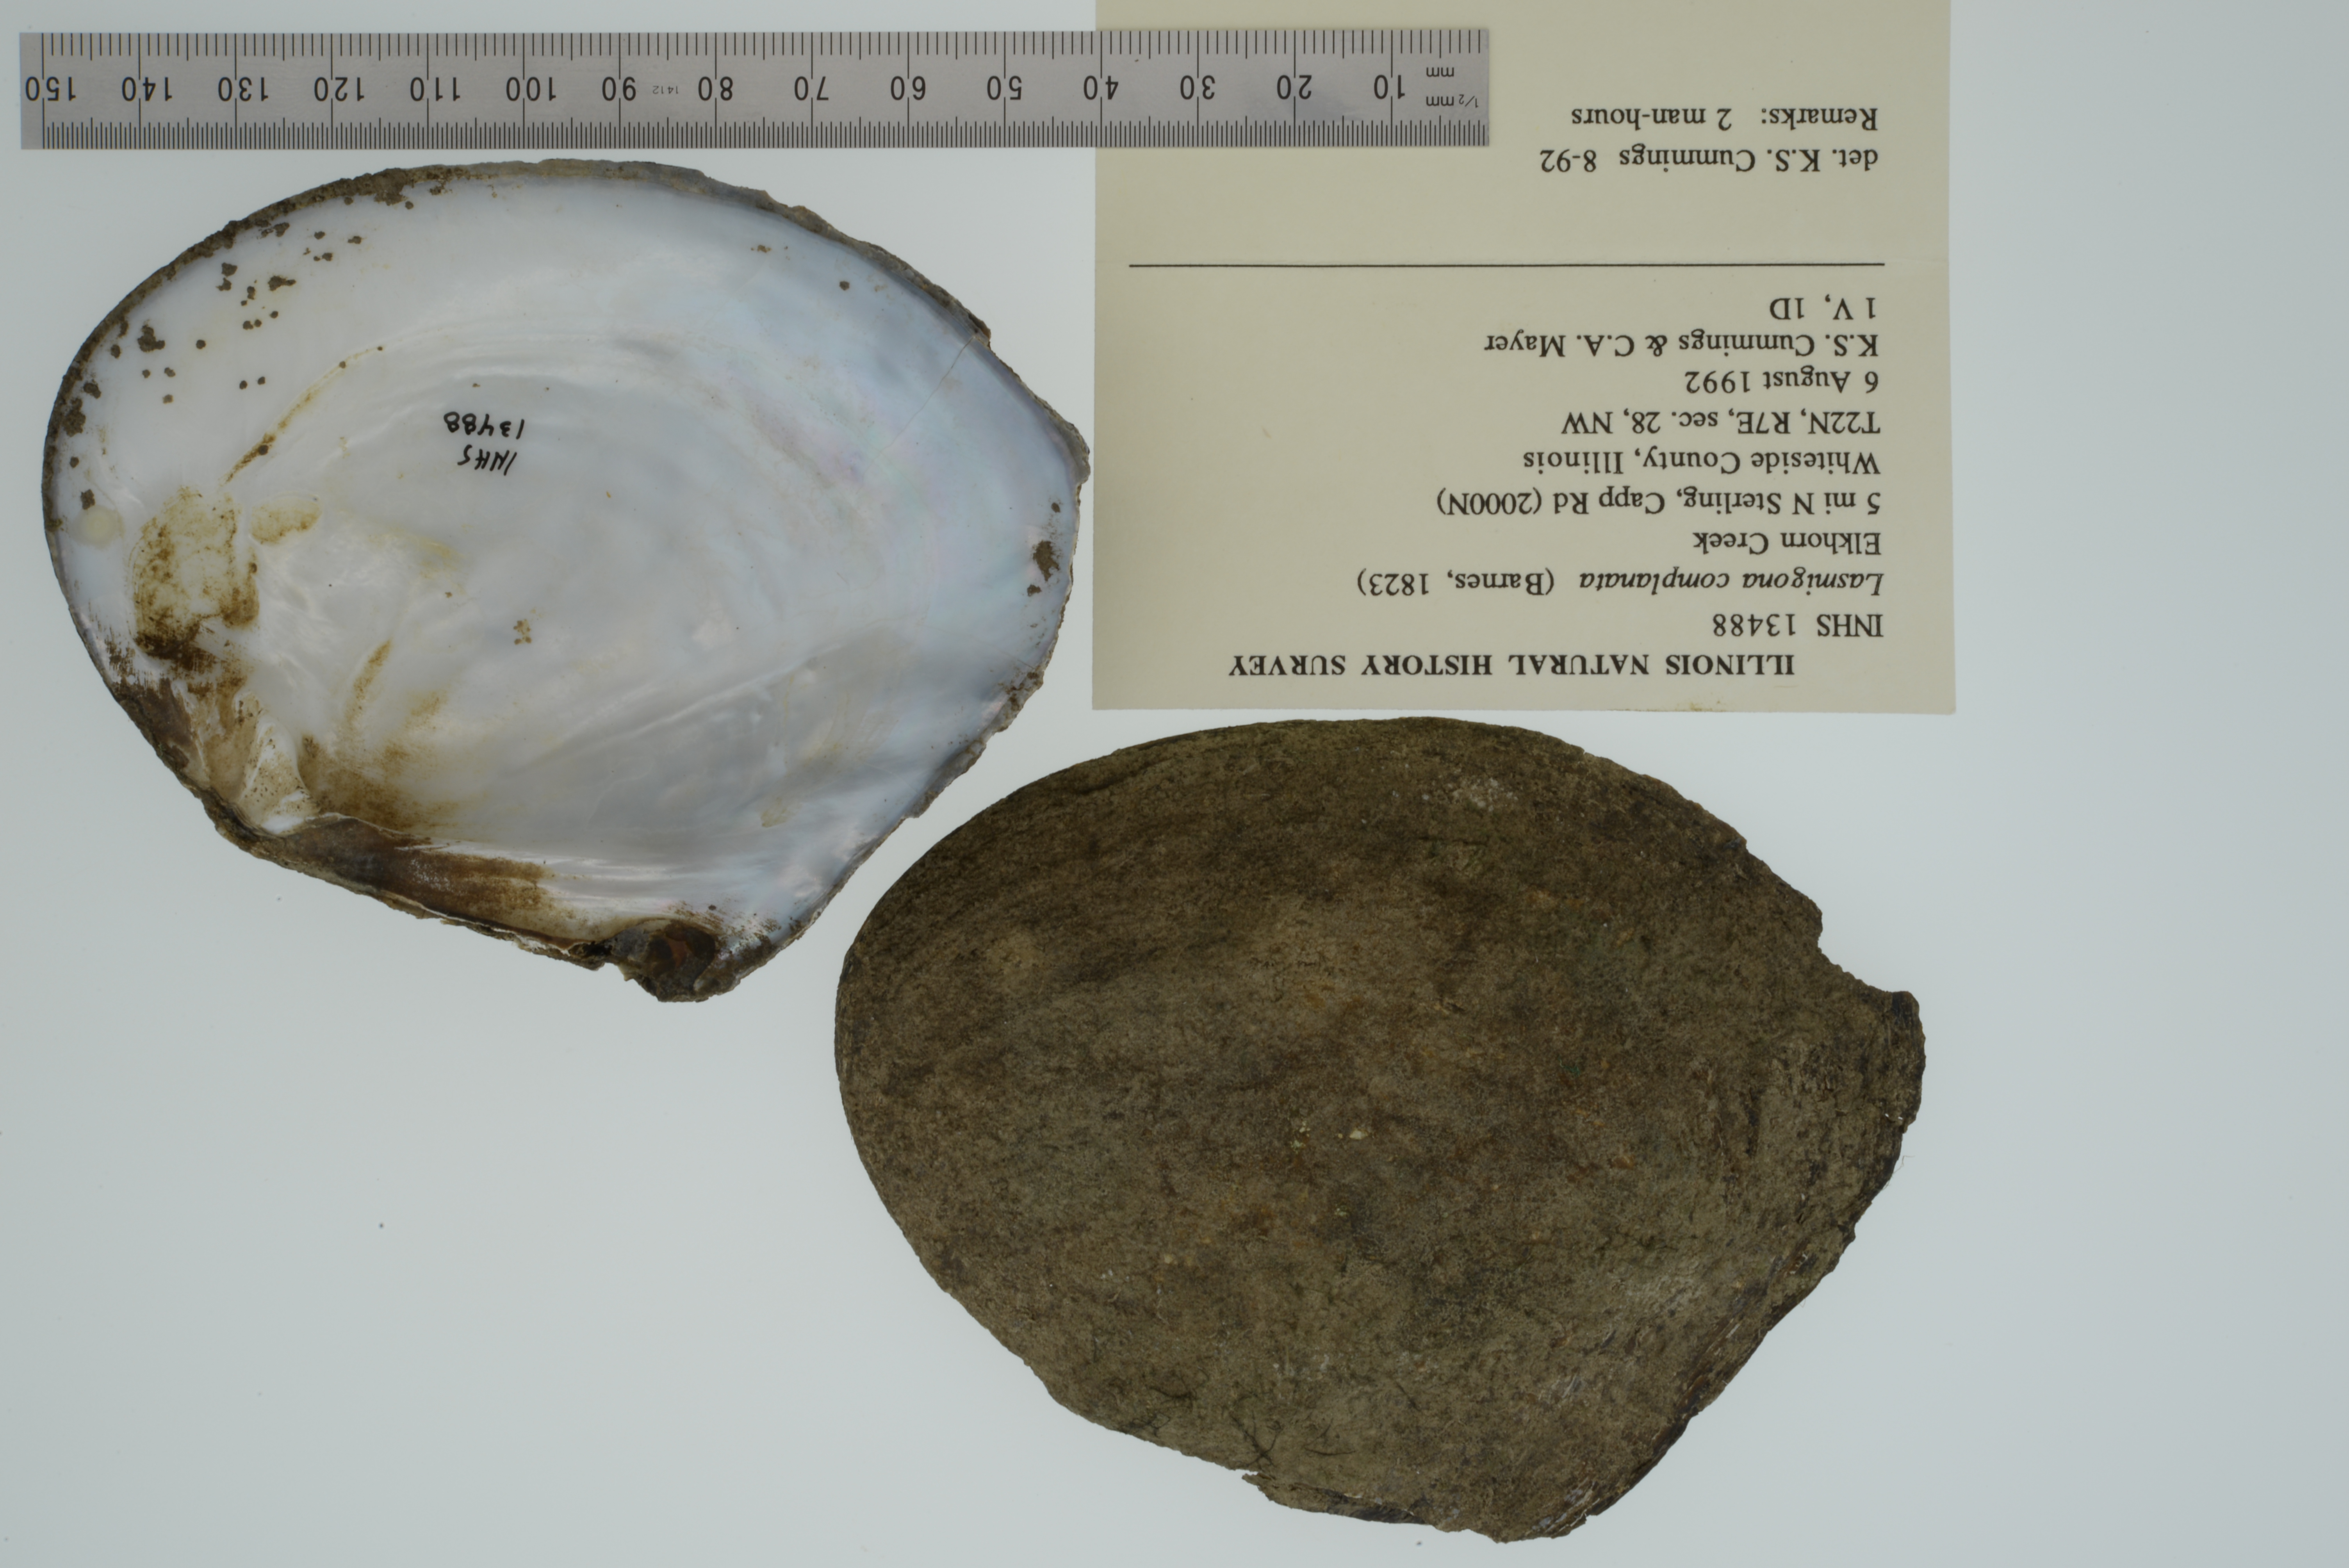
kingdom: Animalia
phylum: Mollusca
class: Bivalvia
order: Unionida
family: Unionidae
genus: Lasmigona
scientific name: Lasmigona complanata
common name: White heelsplitter
